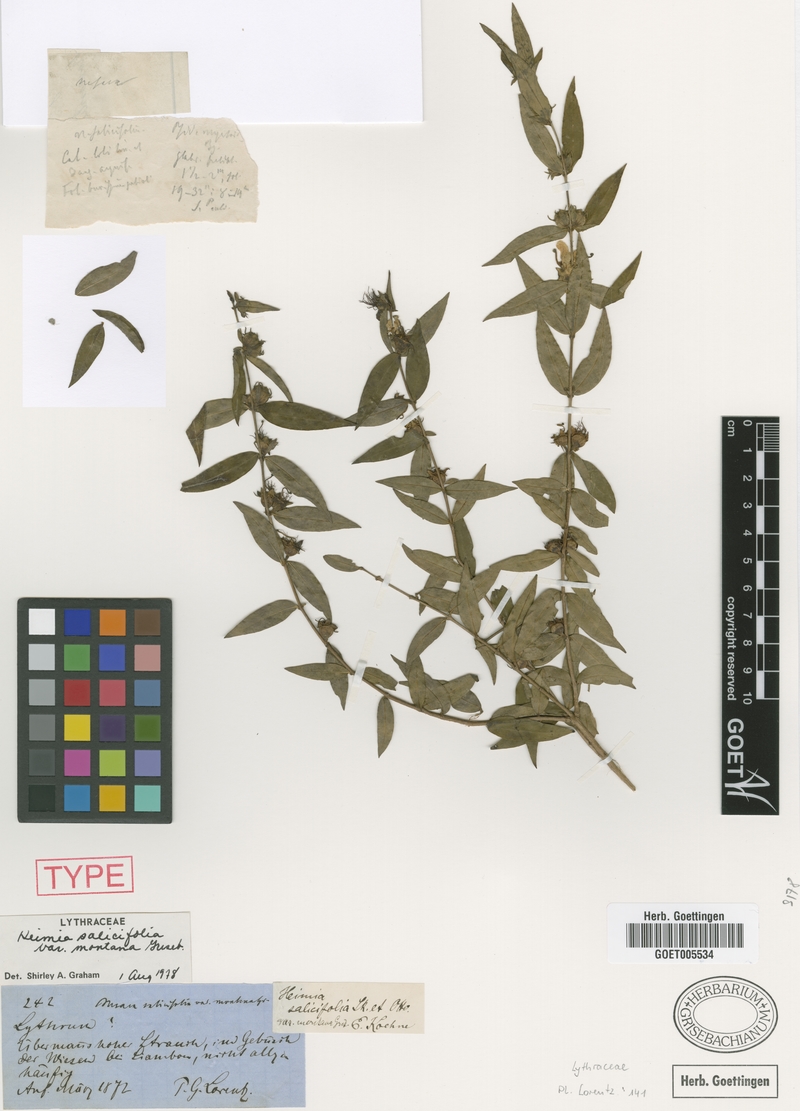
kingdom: Plantae
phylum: Tracheophyta
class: Magnoliopsida
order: Myrtales
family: Lythraceae
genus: Heimia
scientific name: Heimia montana
